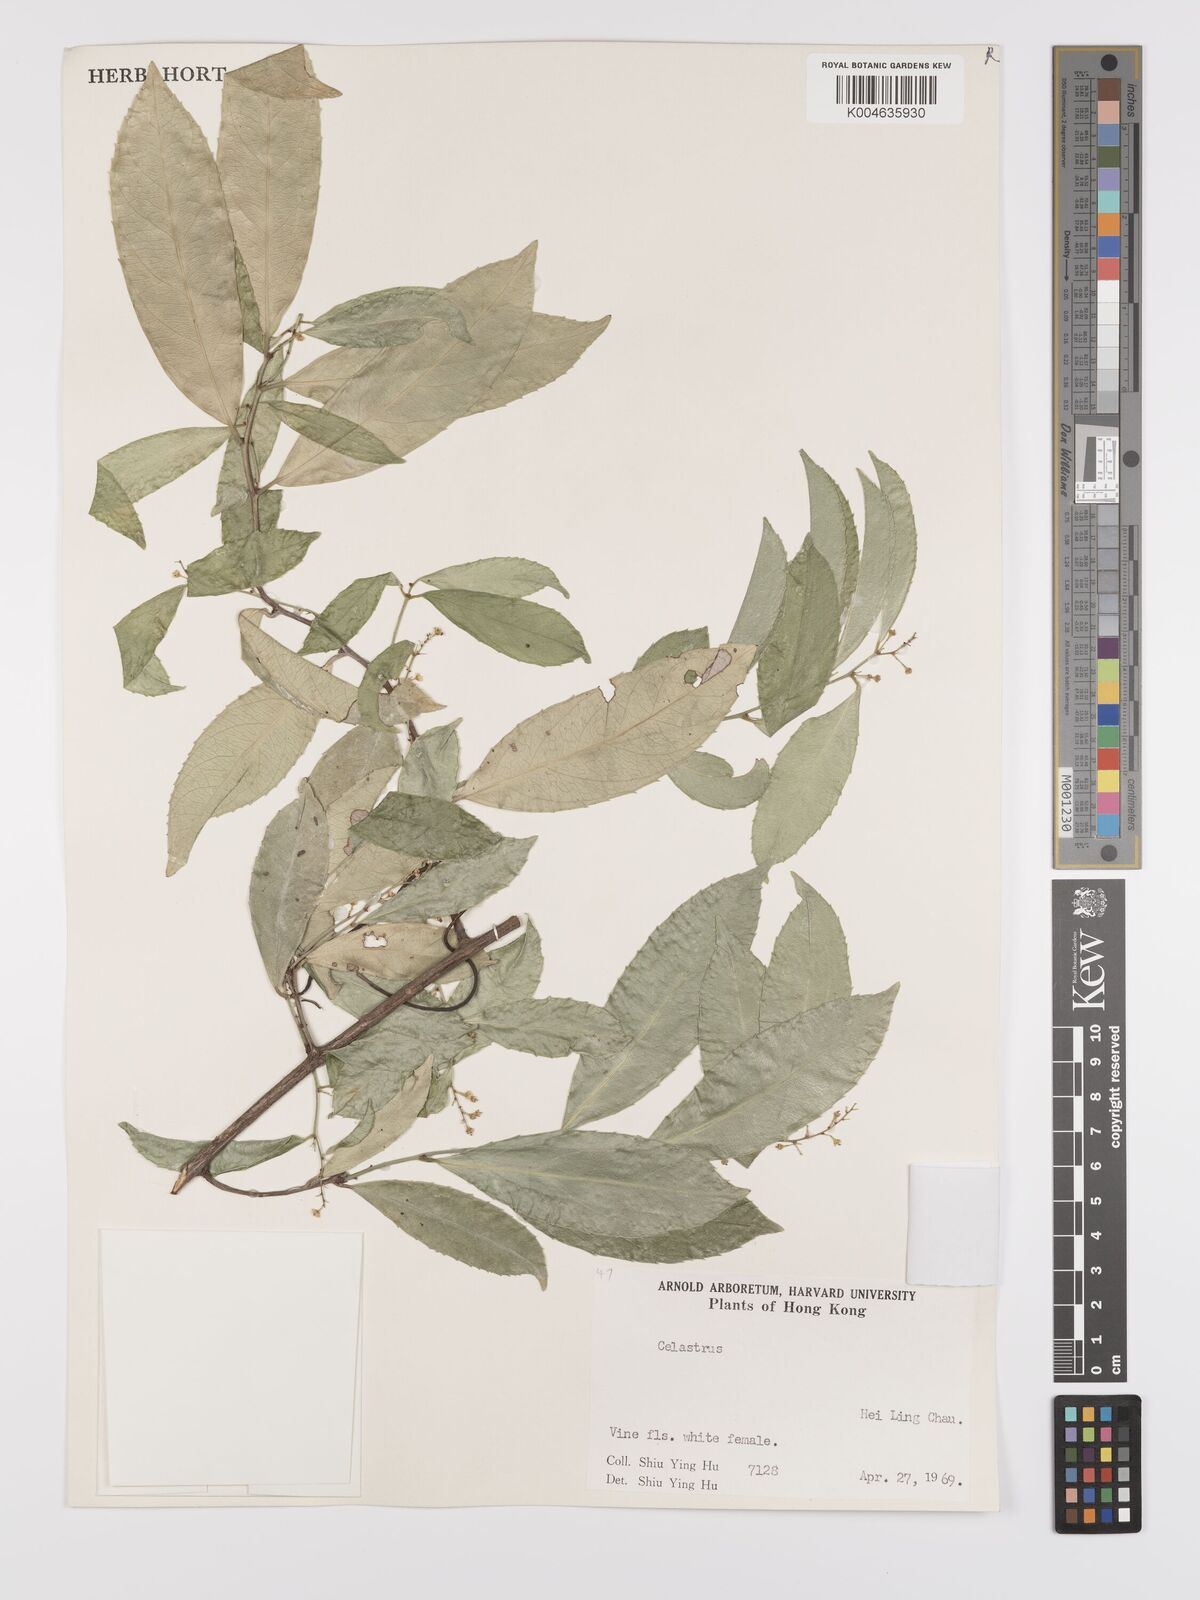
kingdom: Plantae
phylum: Tracheophyta
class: Magnoliopsida
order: Celastrales
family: Celastraceae
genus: Celastrus
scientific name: Celastrus hindsii
